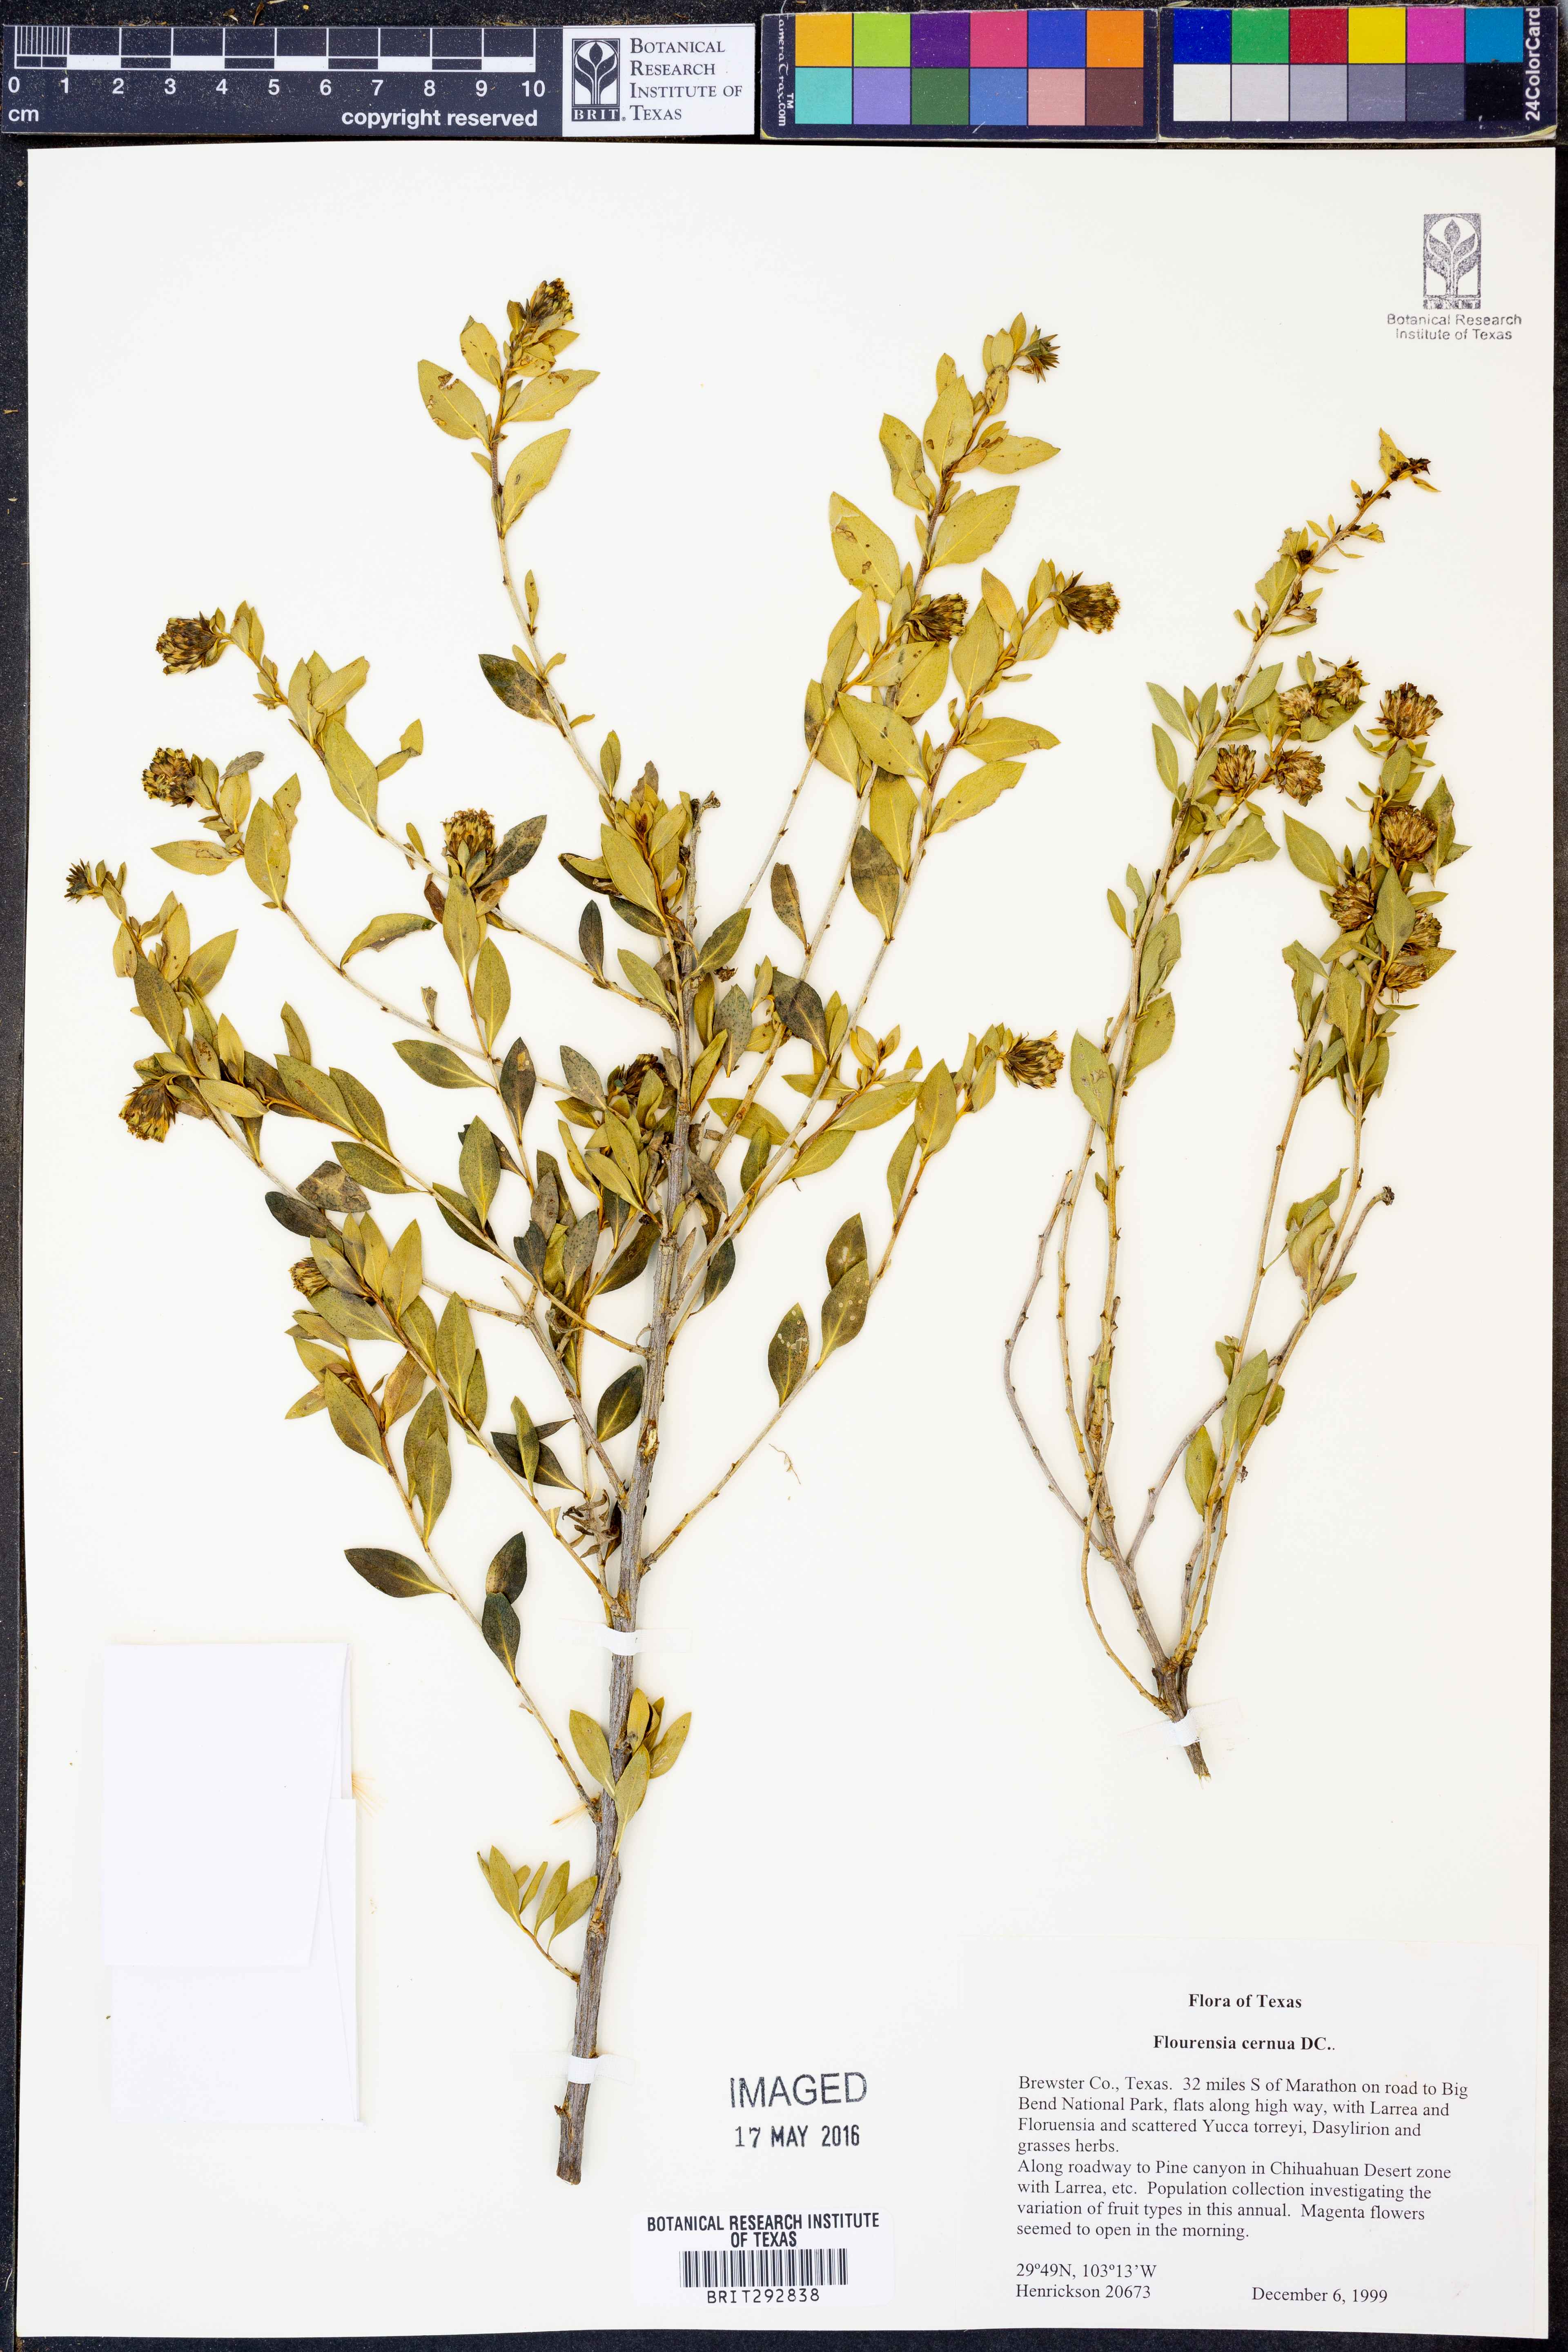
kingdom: Plantae
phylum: Tracheophyta
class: Magnoliopsida
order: Asterales
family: Asteraceae
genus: Flourensia
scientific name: Flourensia cernua
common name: Varnishbush
